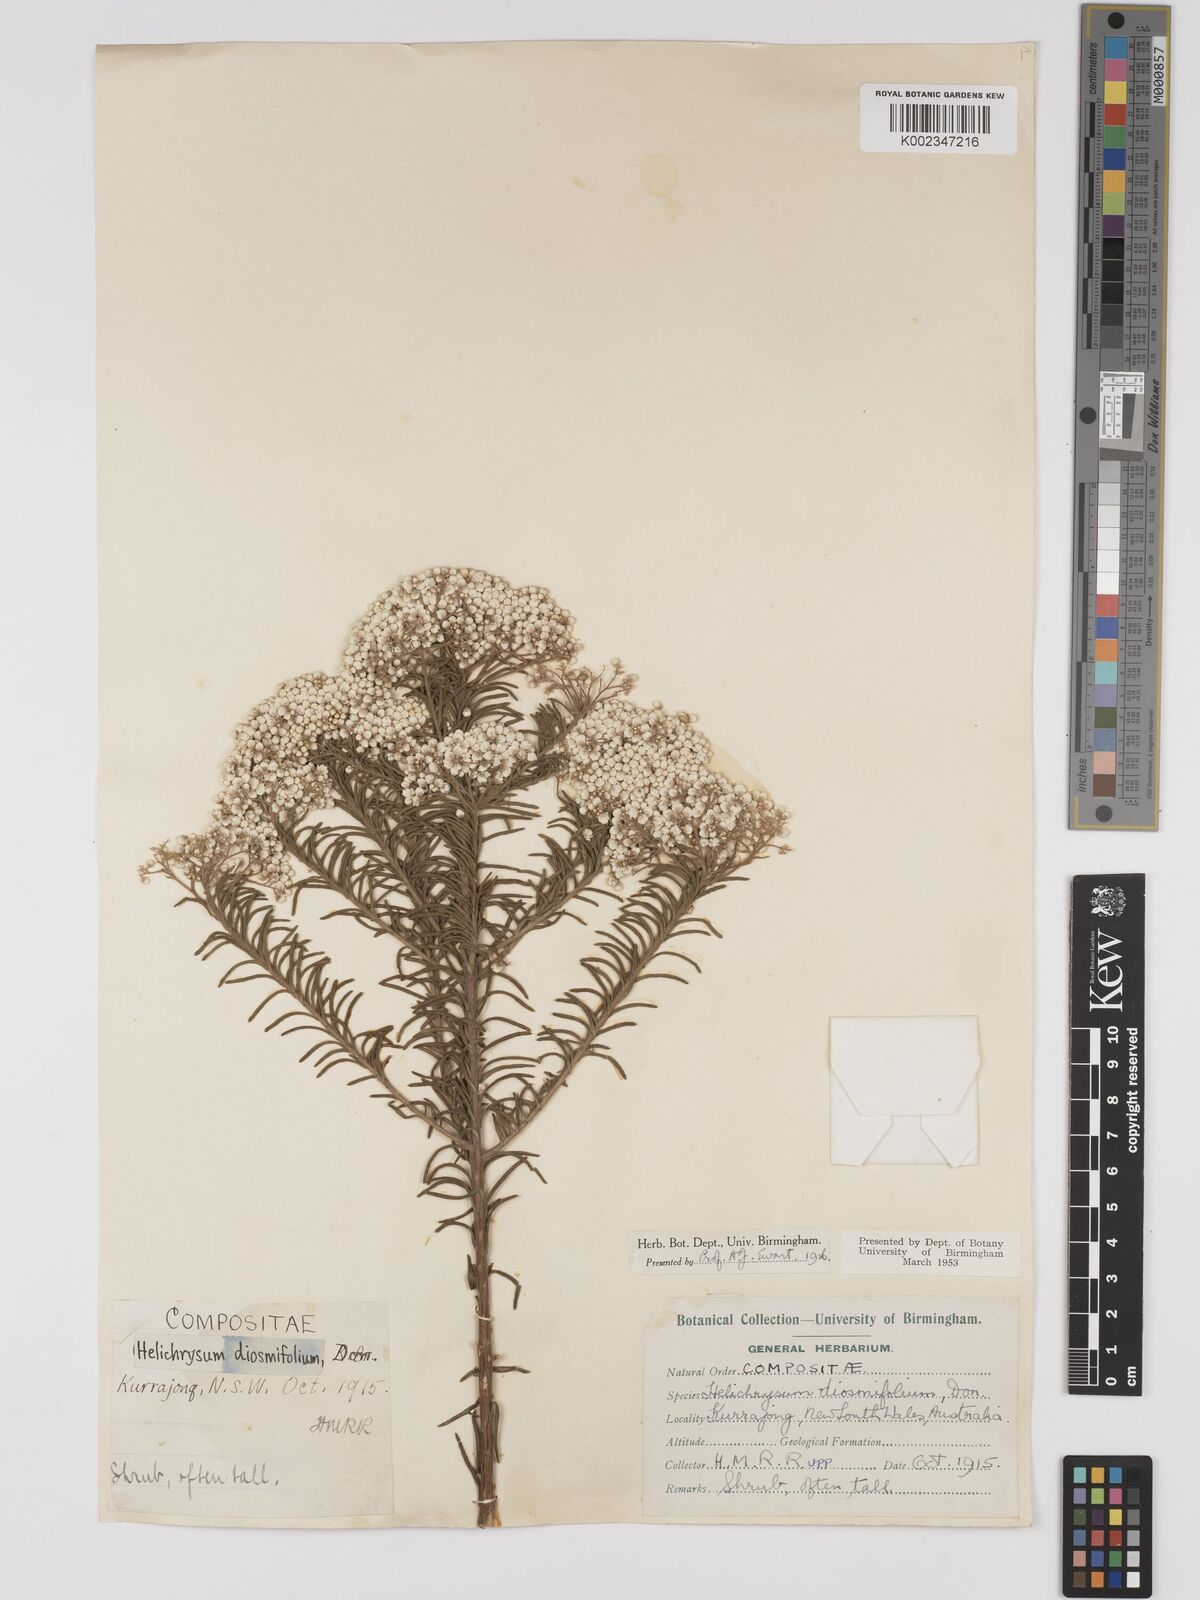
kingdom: Plantae
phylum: Tracheophyta
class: Magnoliopsida
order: Asterales
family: Asteraceae
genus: Ozothamnus
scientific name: Ozothamnus diosmifolius
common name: White-dogwood
